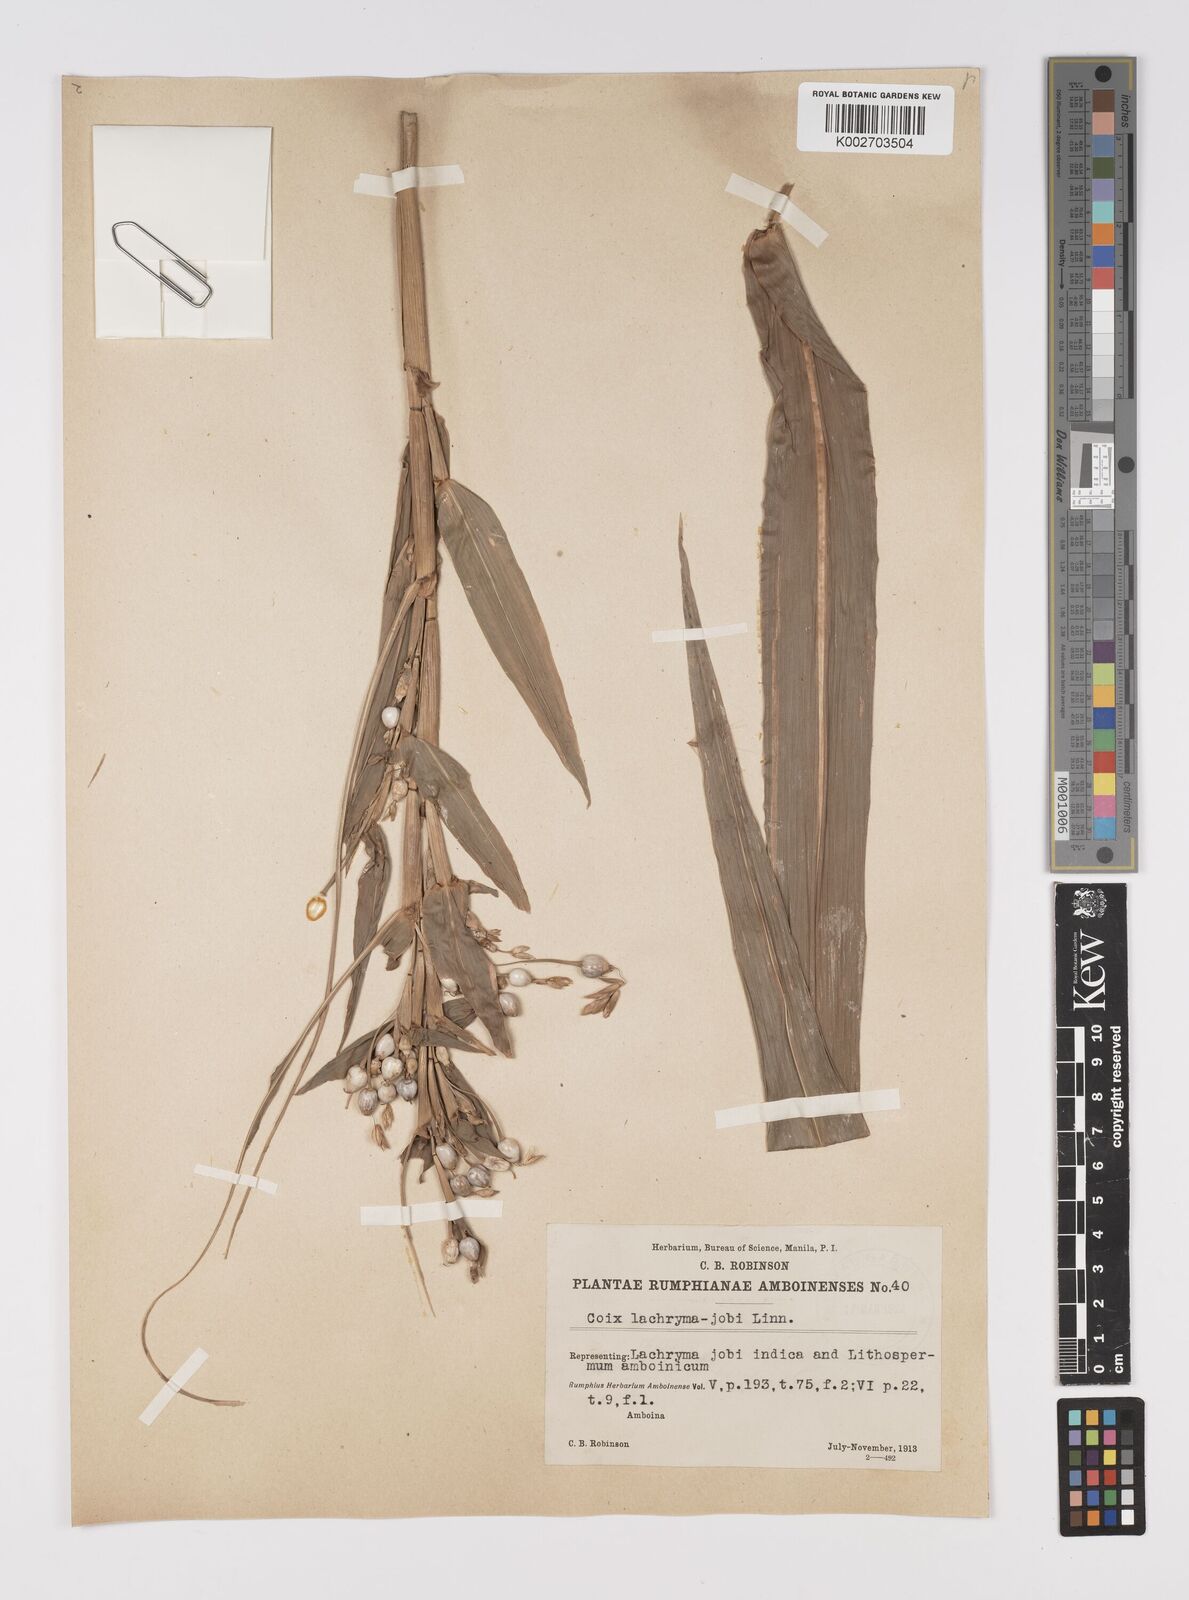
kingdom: Plantae
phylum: Tracheophyta
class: Liliopsida
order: Poales
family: Poaceae
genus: Coix
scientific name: Coix lacryma-jobi
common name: Job's tears
